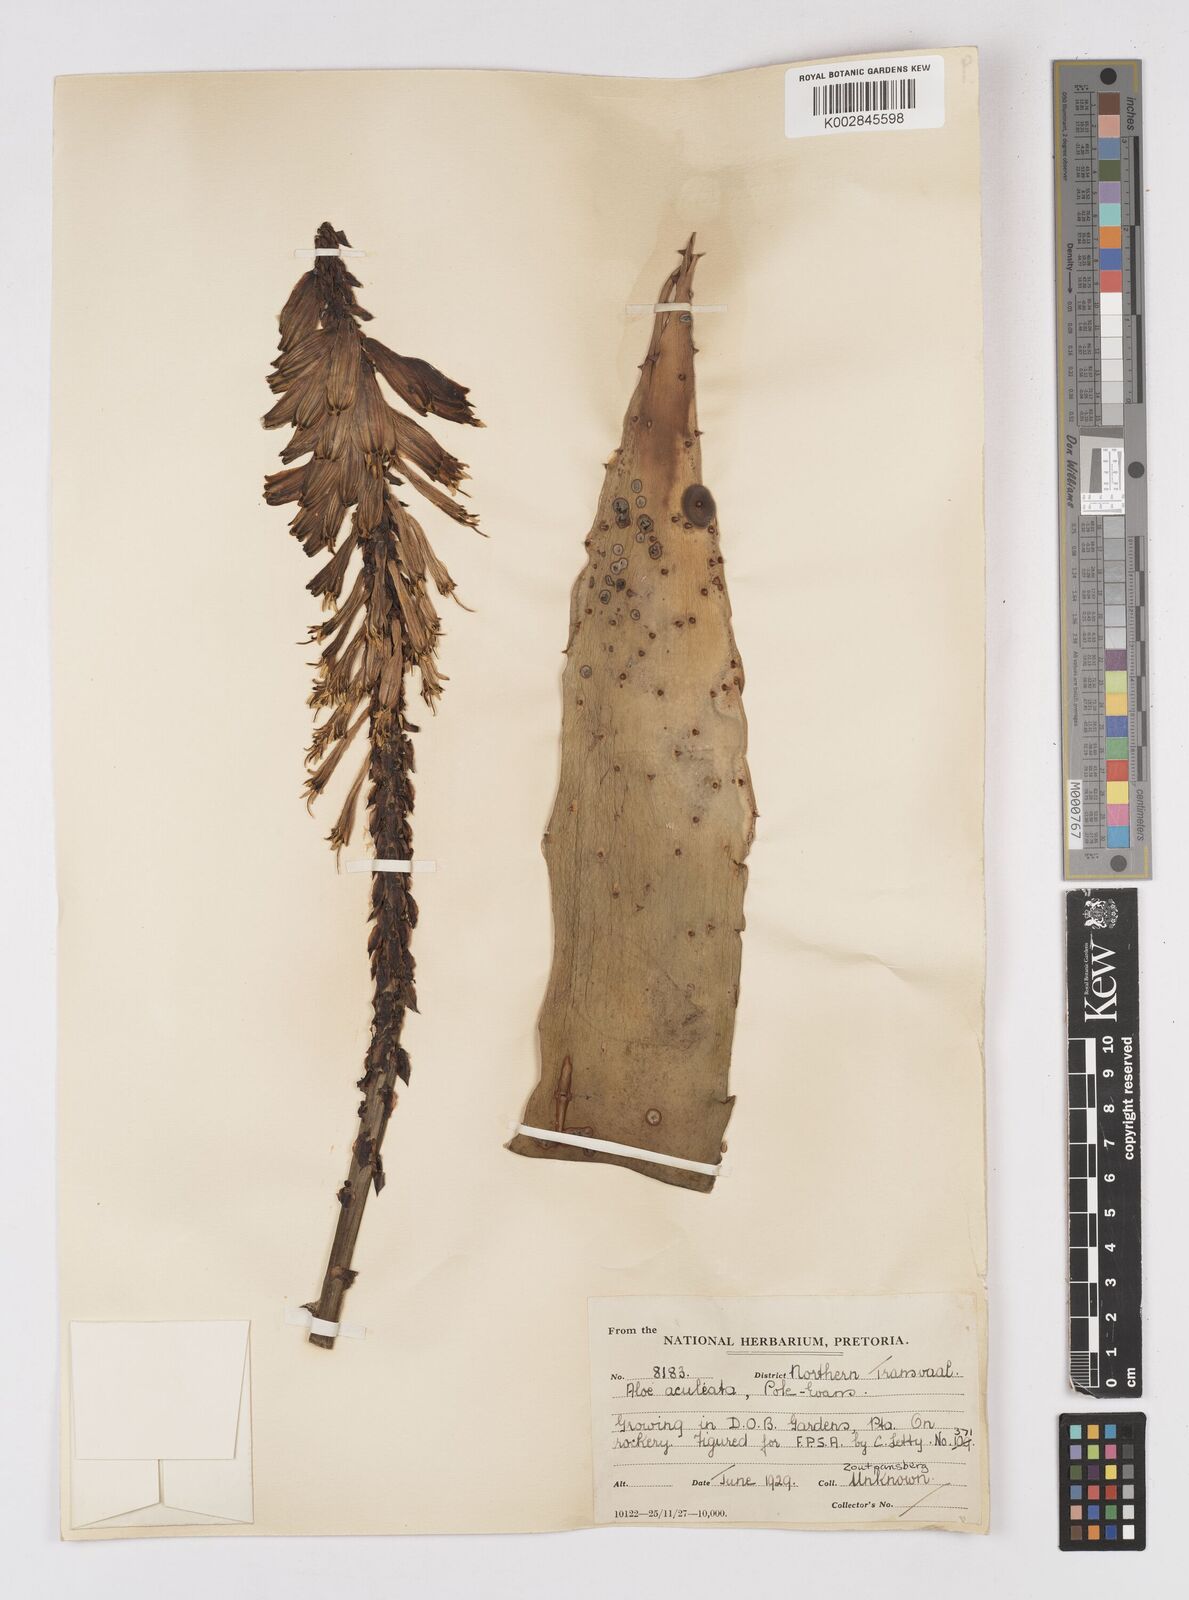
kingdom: Plantae
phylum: Tracheophyta
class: Liliopsida
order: Asparagales
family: Asphodelaceae
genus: Aloe
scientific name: Aloe aculeata
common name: Red hot poker aloe
